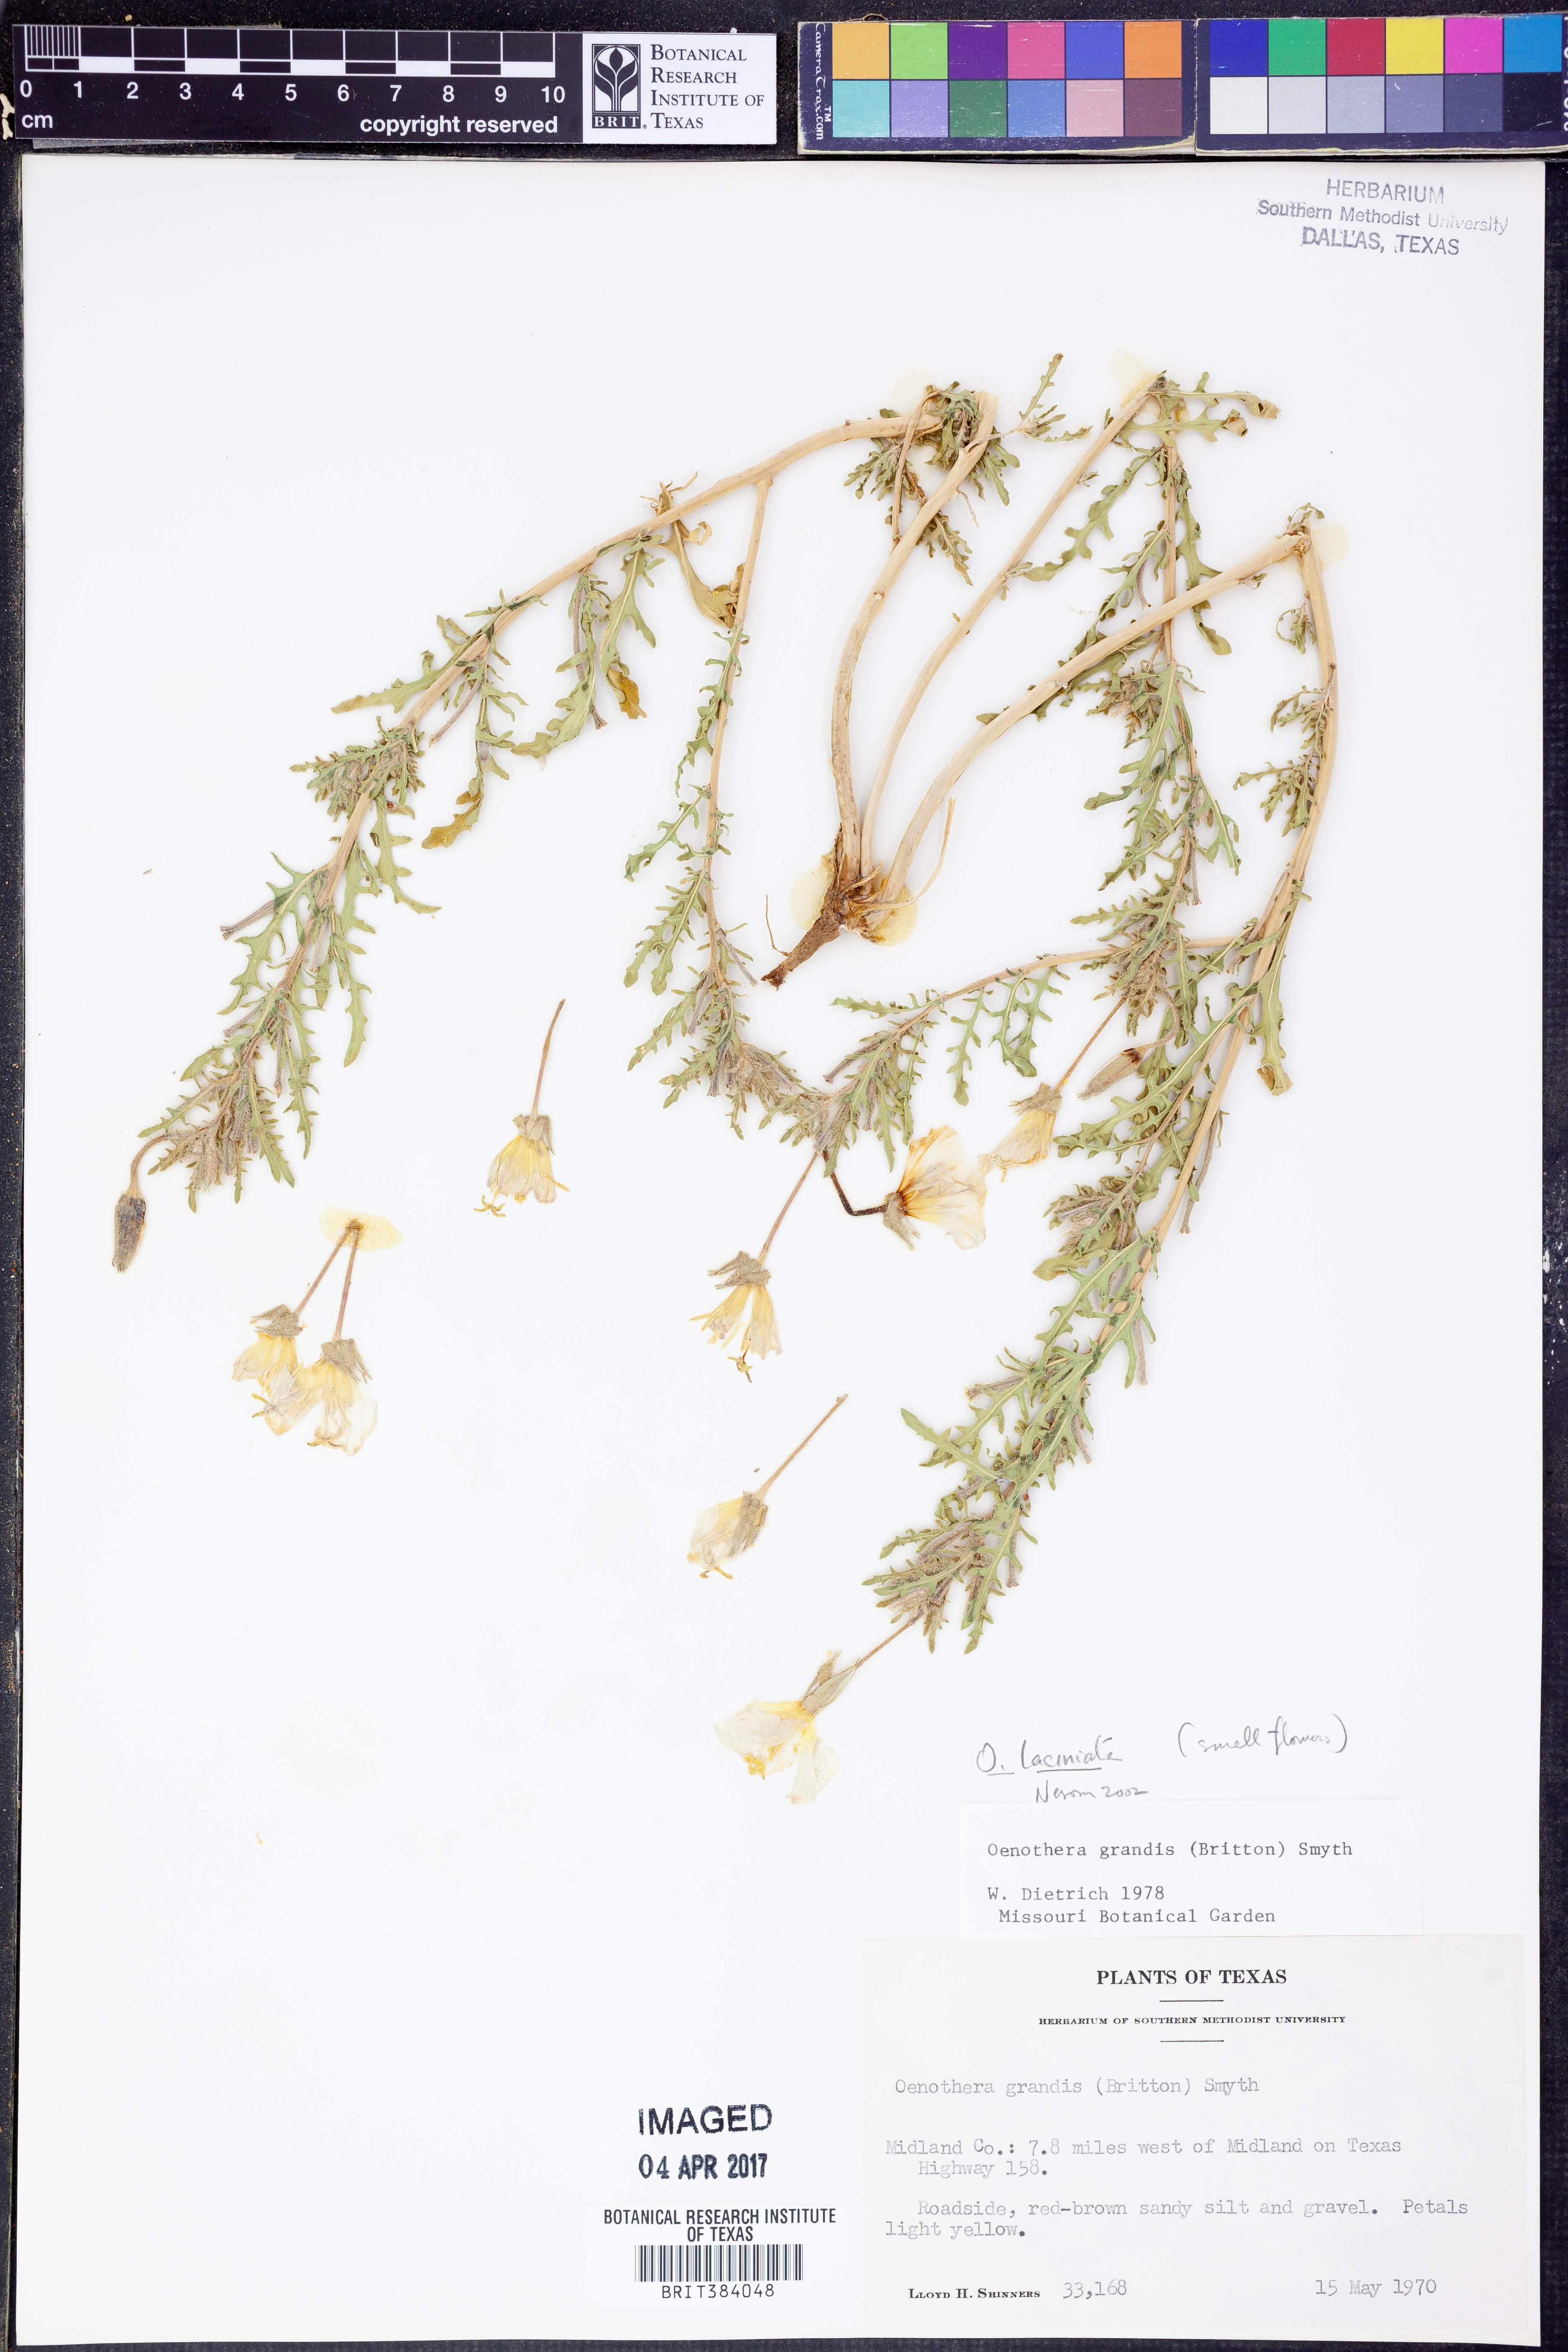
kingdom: Plantae
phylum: Tracheophyta
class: Magnoliopsida
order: Myrtales
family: Onagraceae
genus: Oenothera
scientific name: Oenothera laciniata
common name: Cut-leaved evening-primrose
